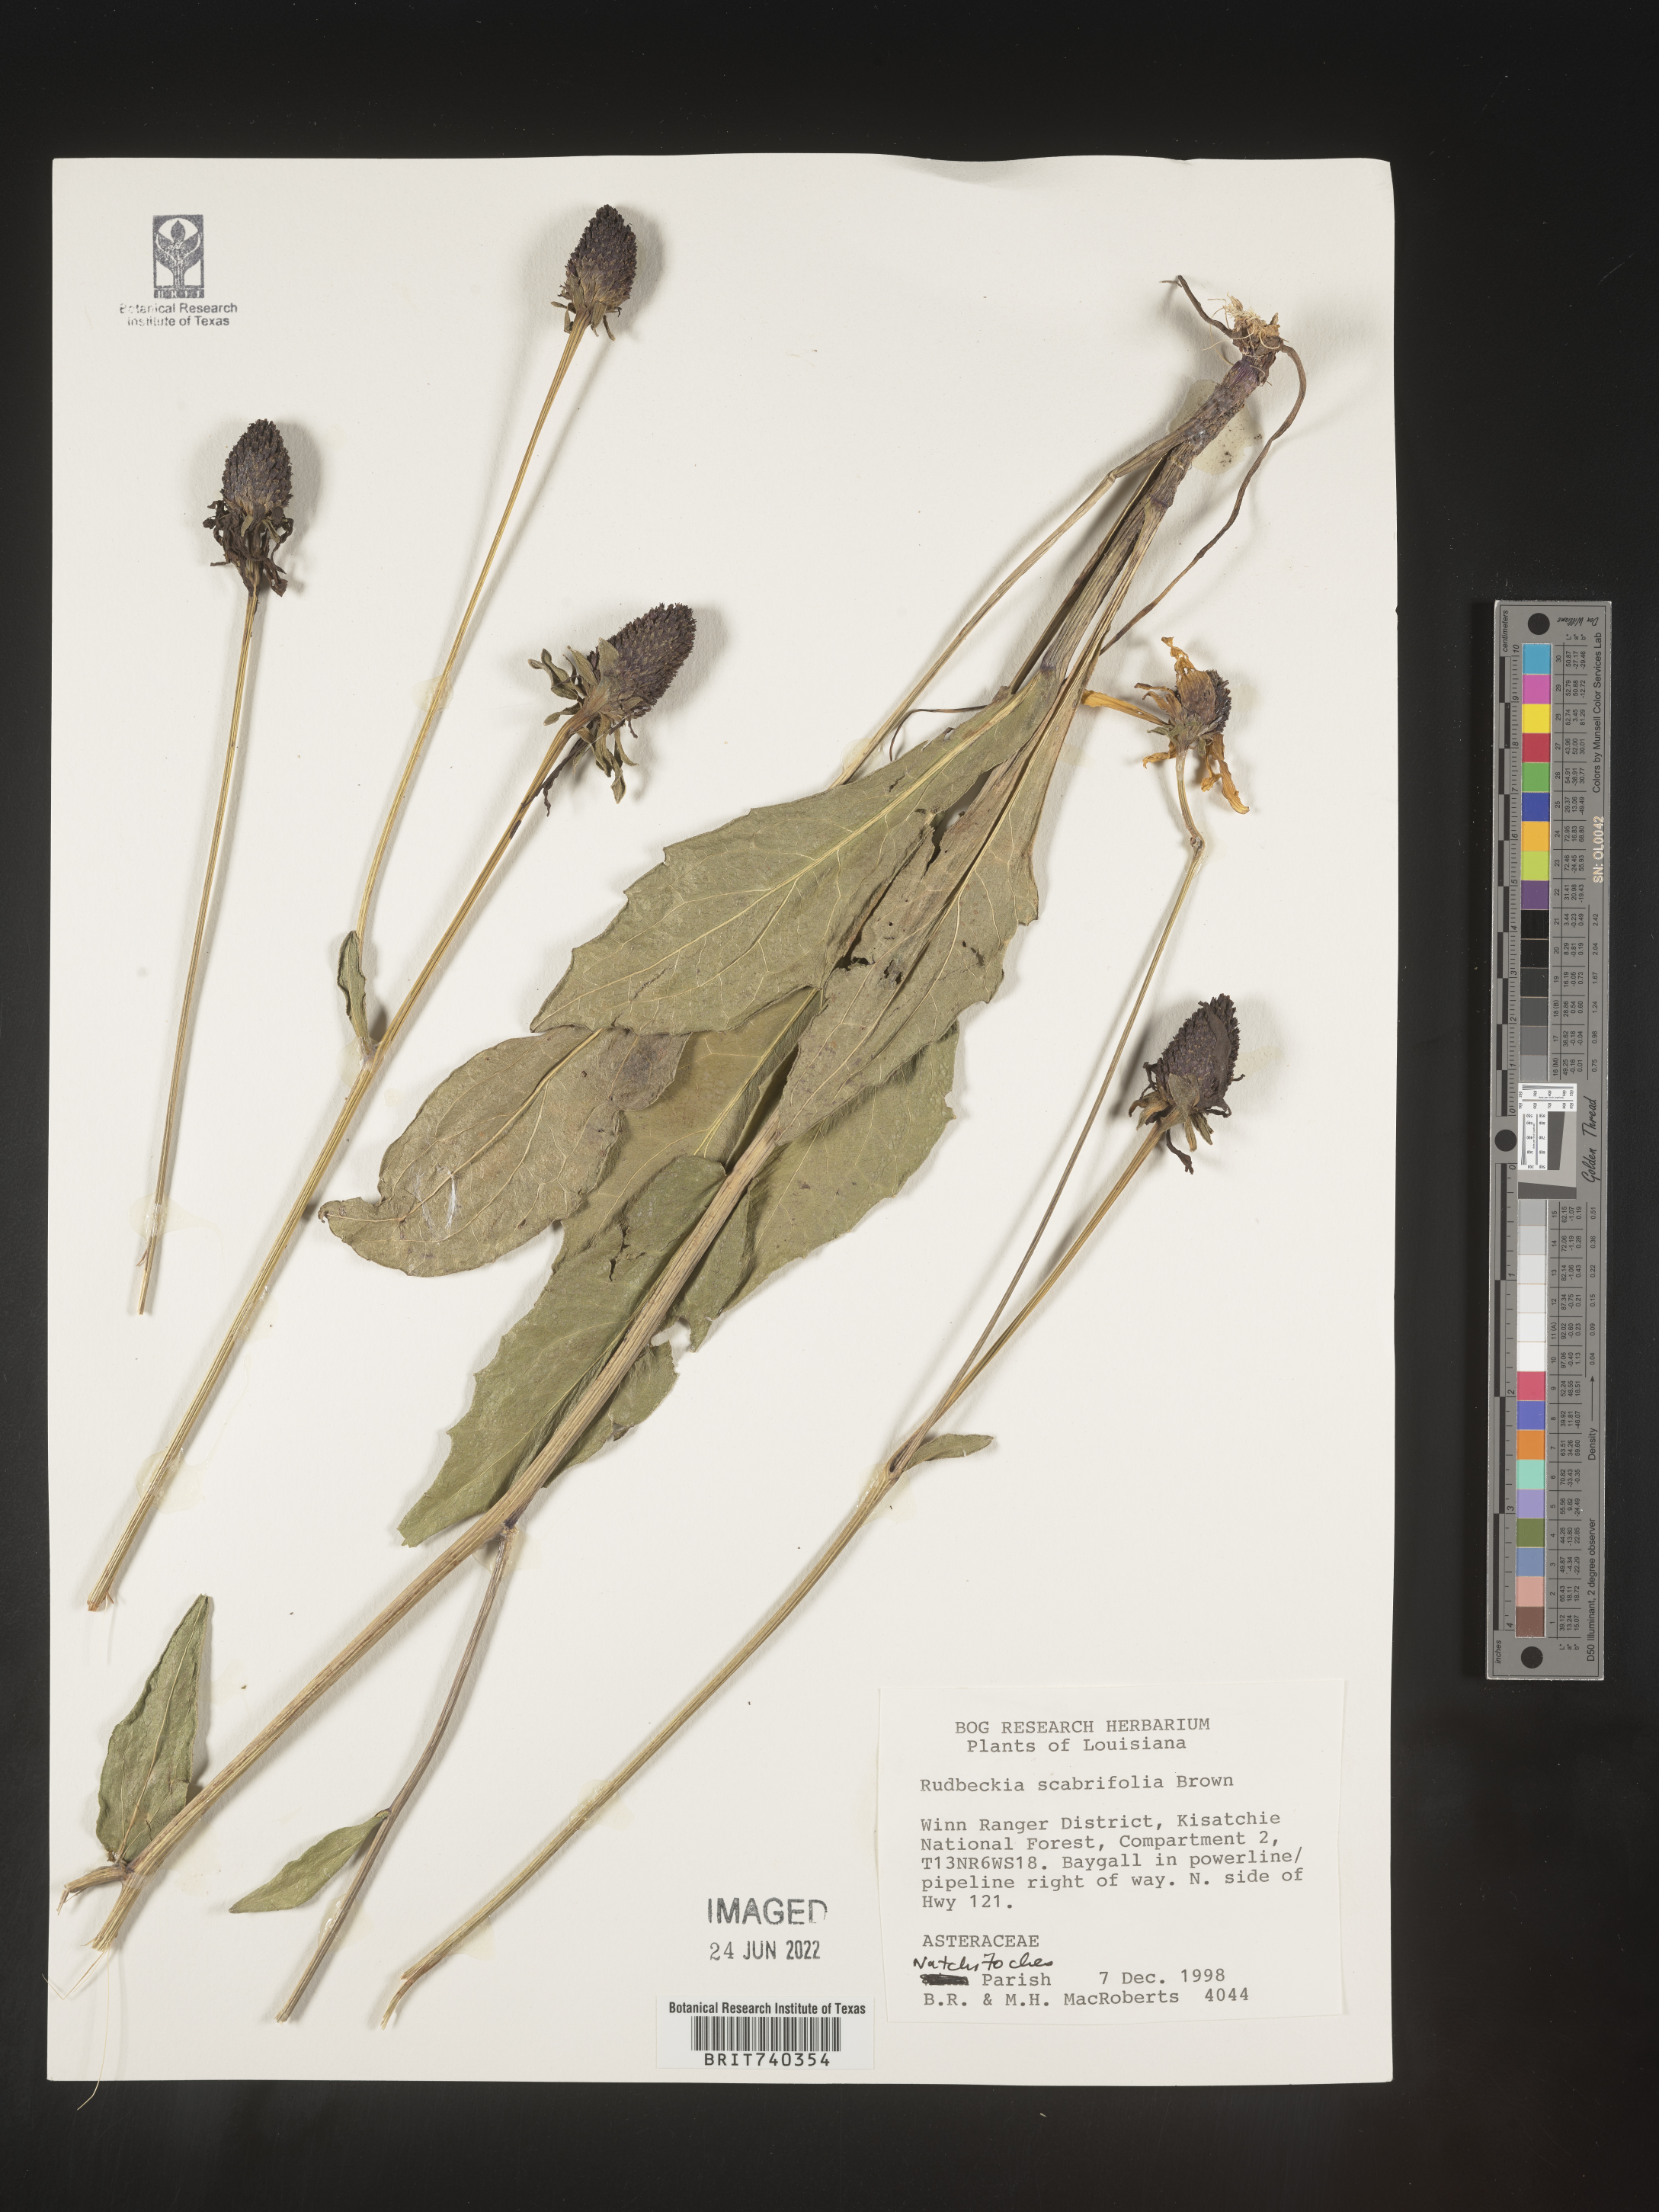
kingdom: Plantae
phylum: Tracheophyta
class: Magnoliopsida
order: Asterales
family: Asteraceae
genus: Rudbeckia
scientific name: Rudbeckia scabrifolia
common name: Rough-leaf coneflower
